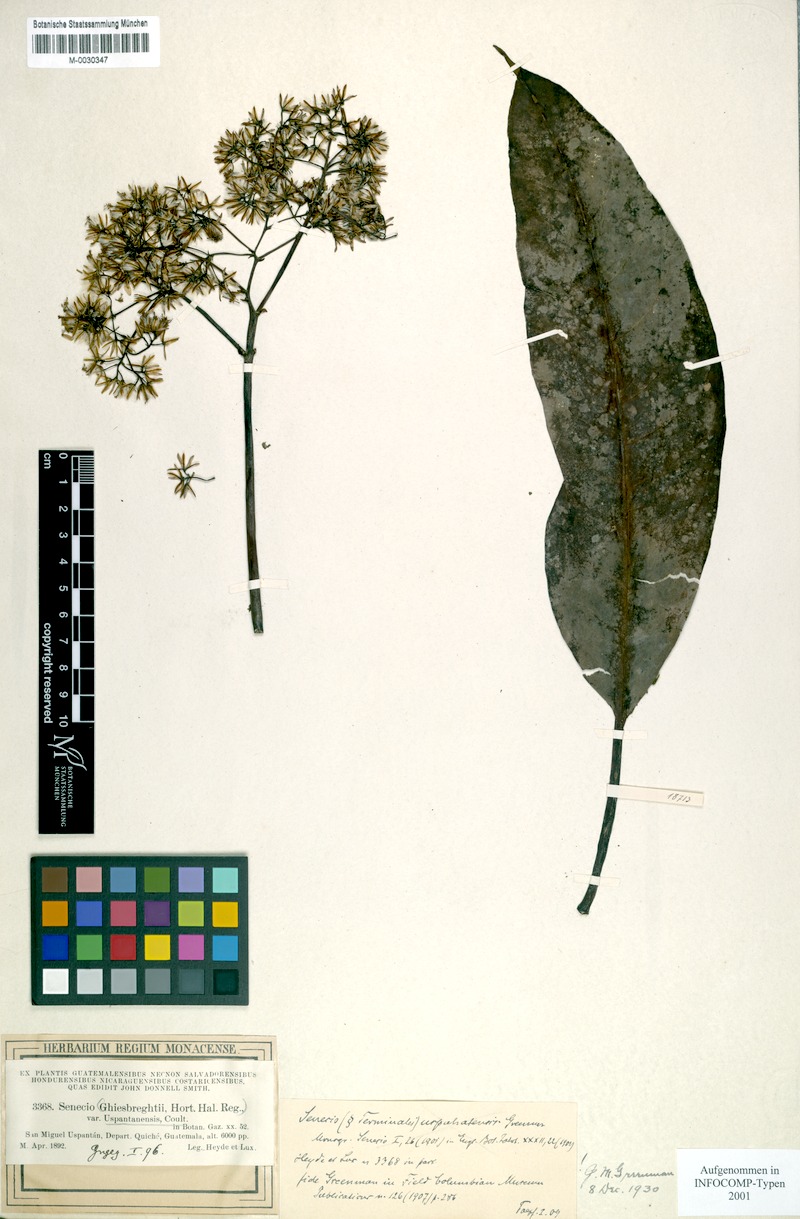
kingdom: Plantae
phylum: Tracheophyta
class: Magnoliopsida
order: Asterales
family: Asteraceae
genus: Telanthophora
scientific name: Telanthophora uspantanensis
